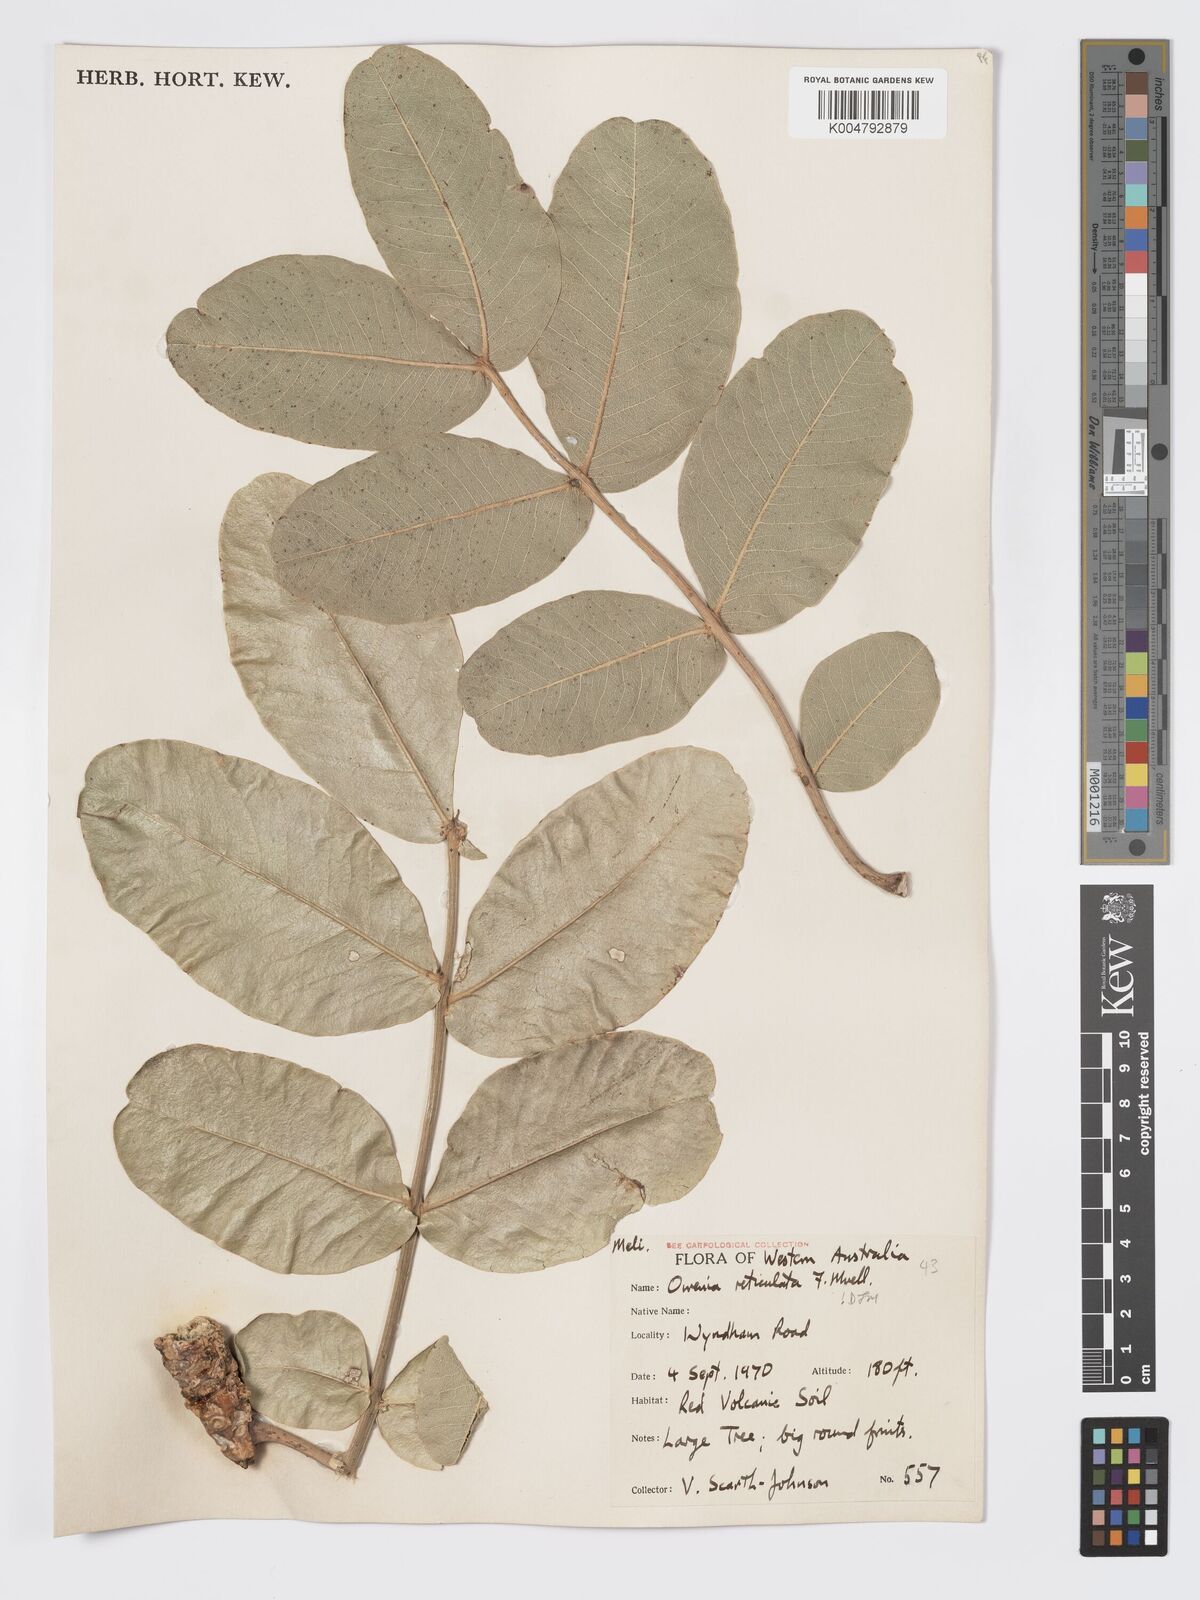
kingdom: Plantae
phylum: Tracheophyta
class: Magnoliopsida
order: Sapindales
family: Meliaceae
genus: Owenia
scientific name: Owenia reticulata
